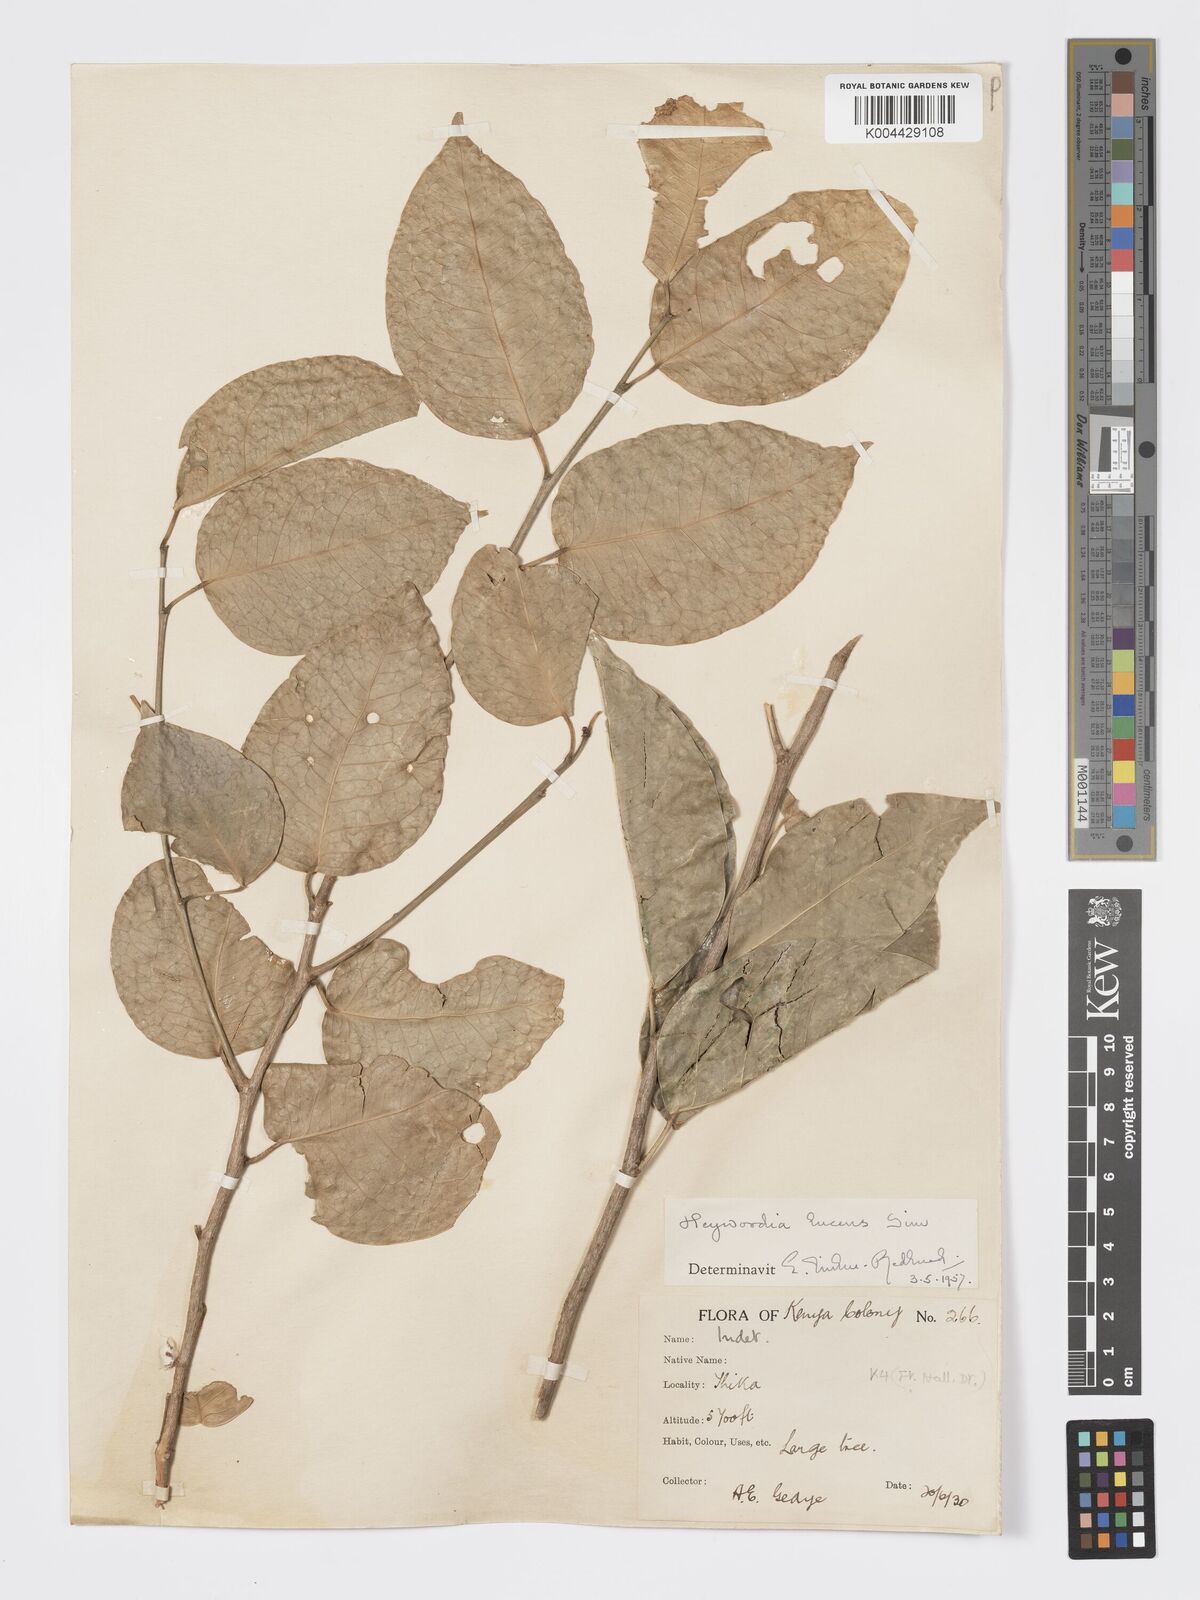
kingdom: Plantae
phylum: Tracheophyta
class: Magnoliopsida
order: Malpighiales
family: Phyllanthaceae
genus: Heywoodia
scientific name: Heywoodia lucens
